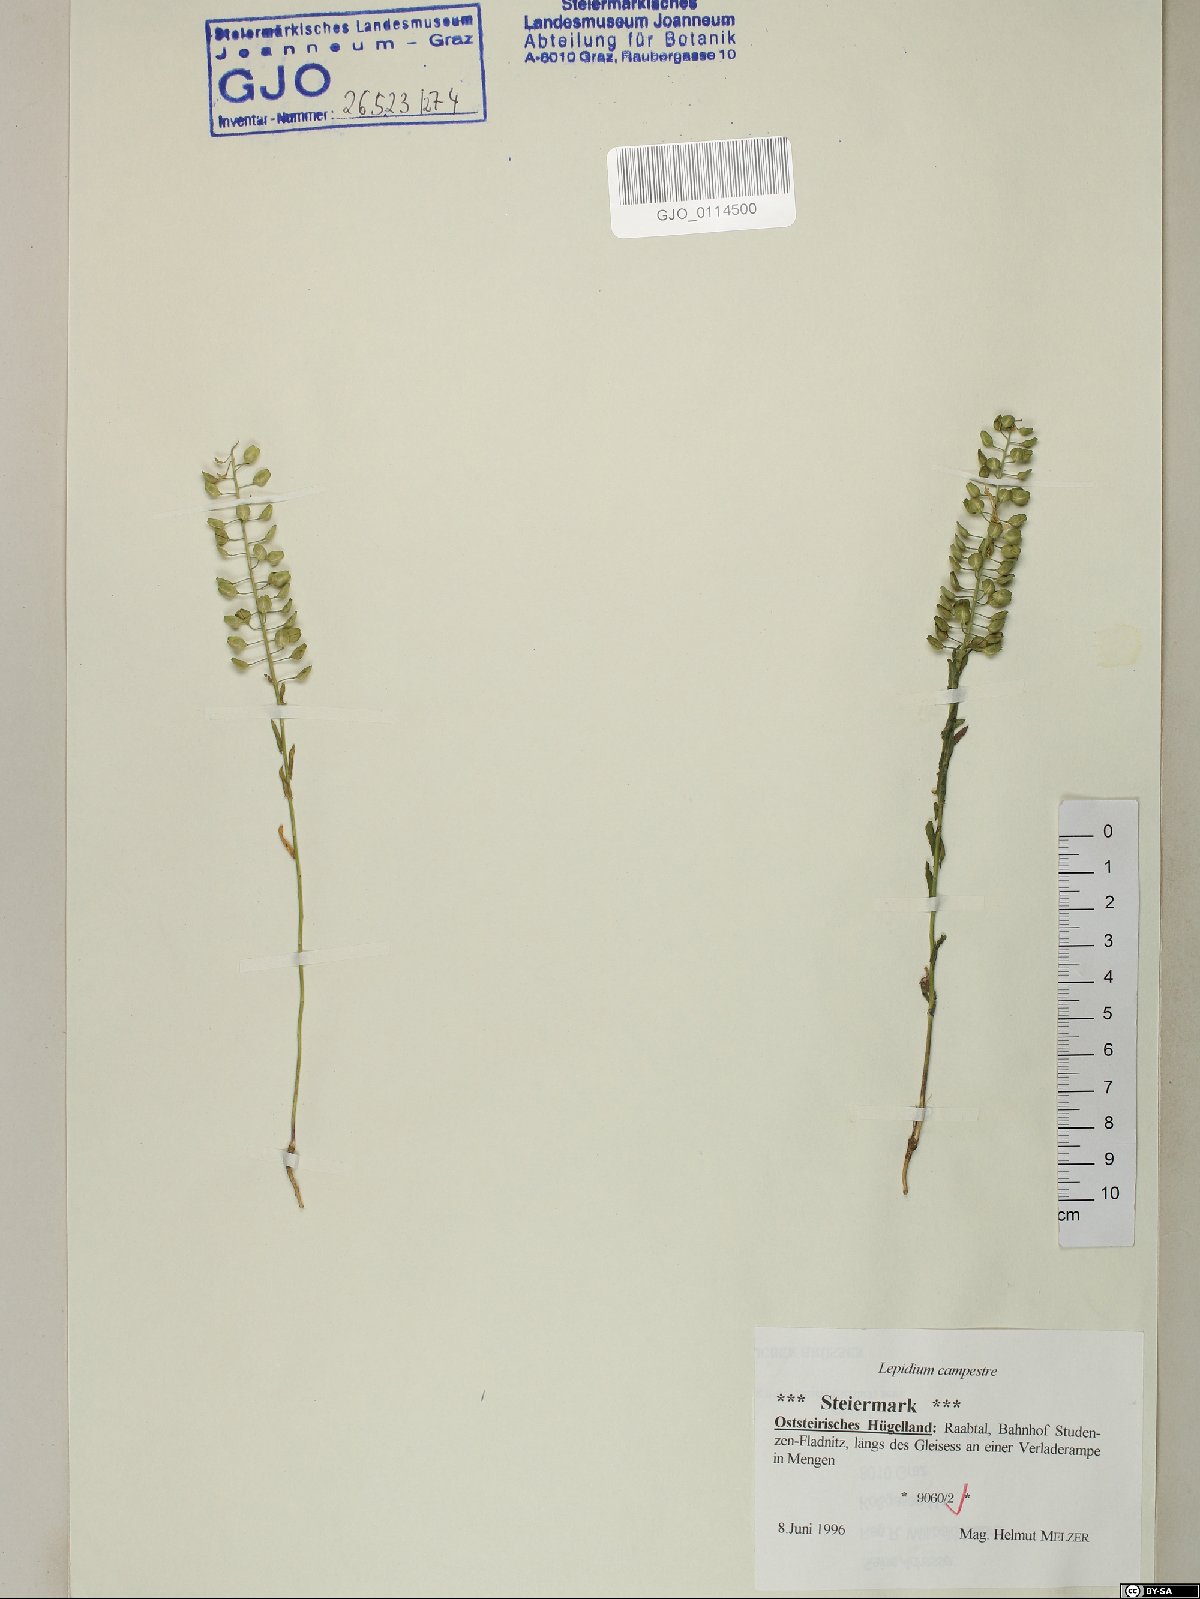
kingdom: Plantae
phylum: Tracheophyta
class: Magnoliopsida
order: Brassicales
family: Brassicaceae
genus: Lepidium
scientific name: Lepidium campestre
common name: Field pepperwort
